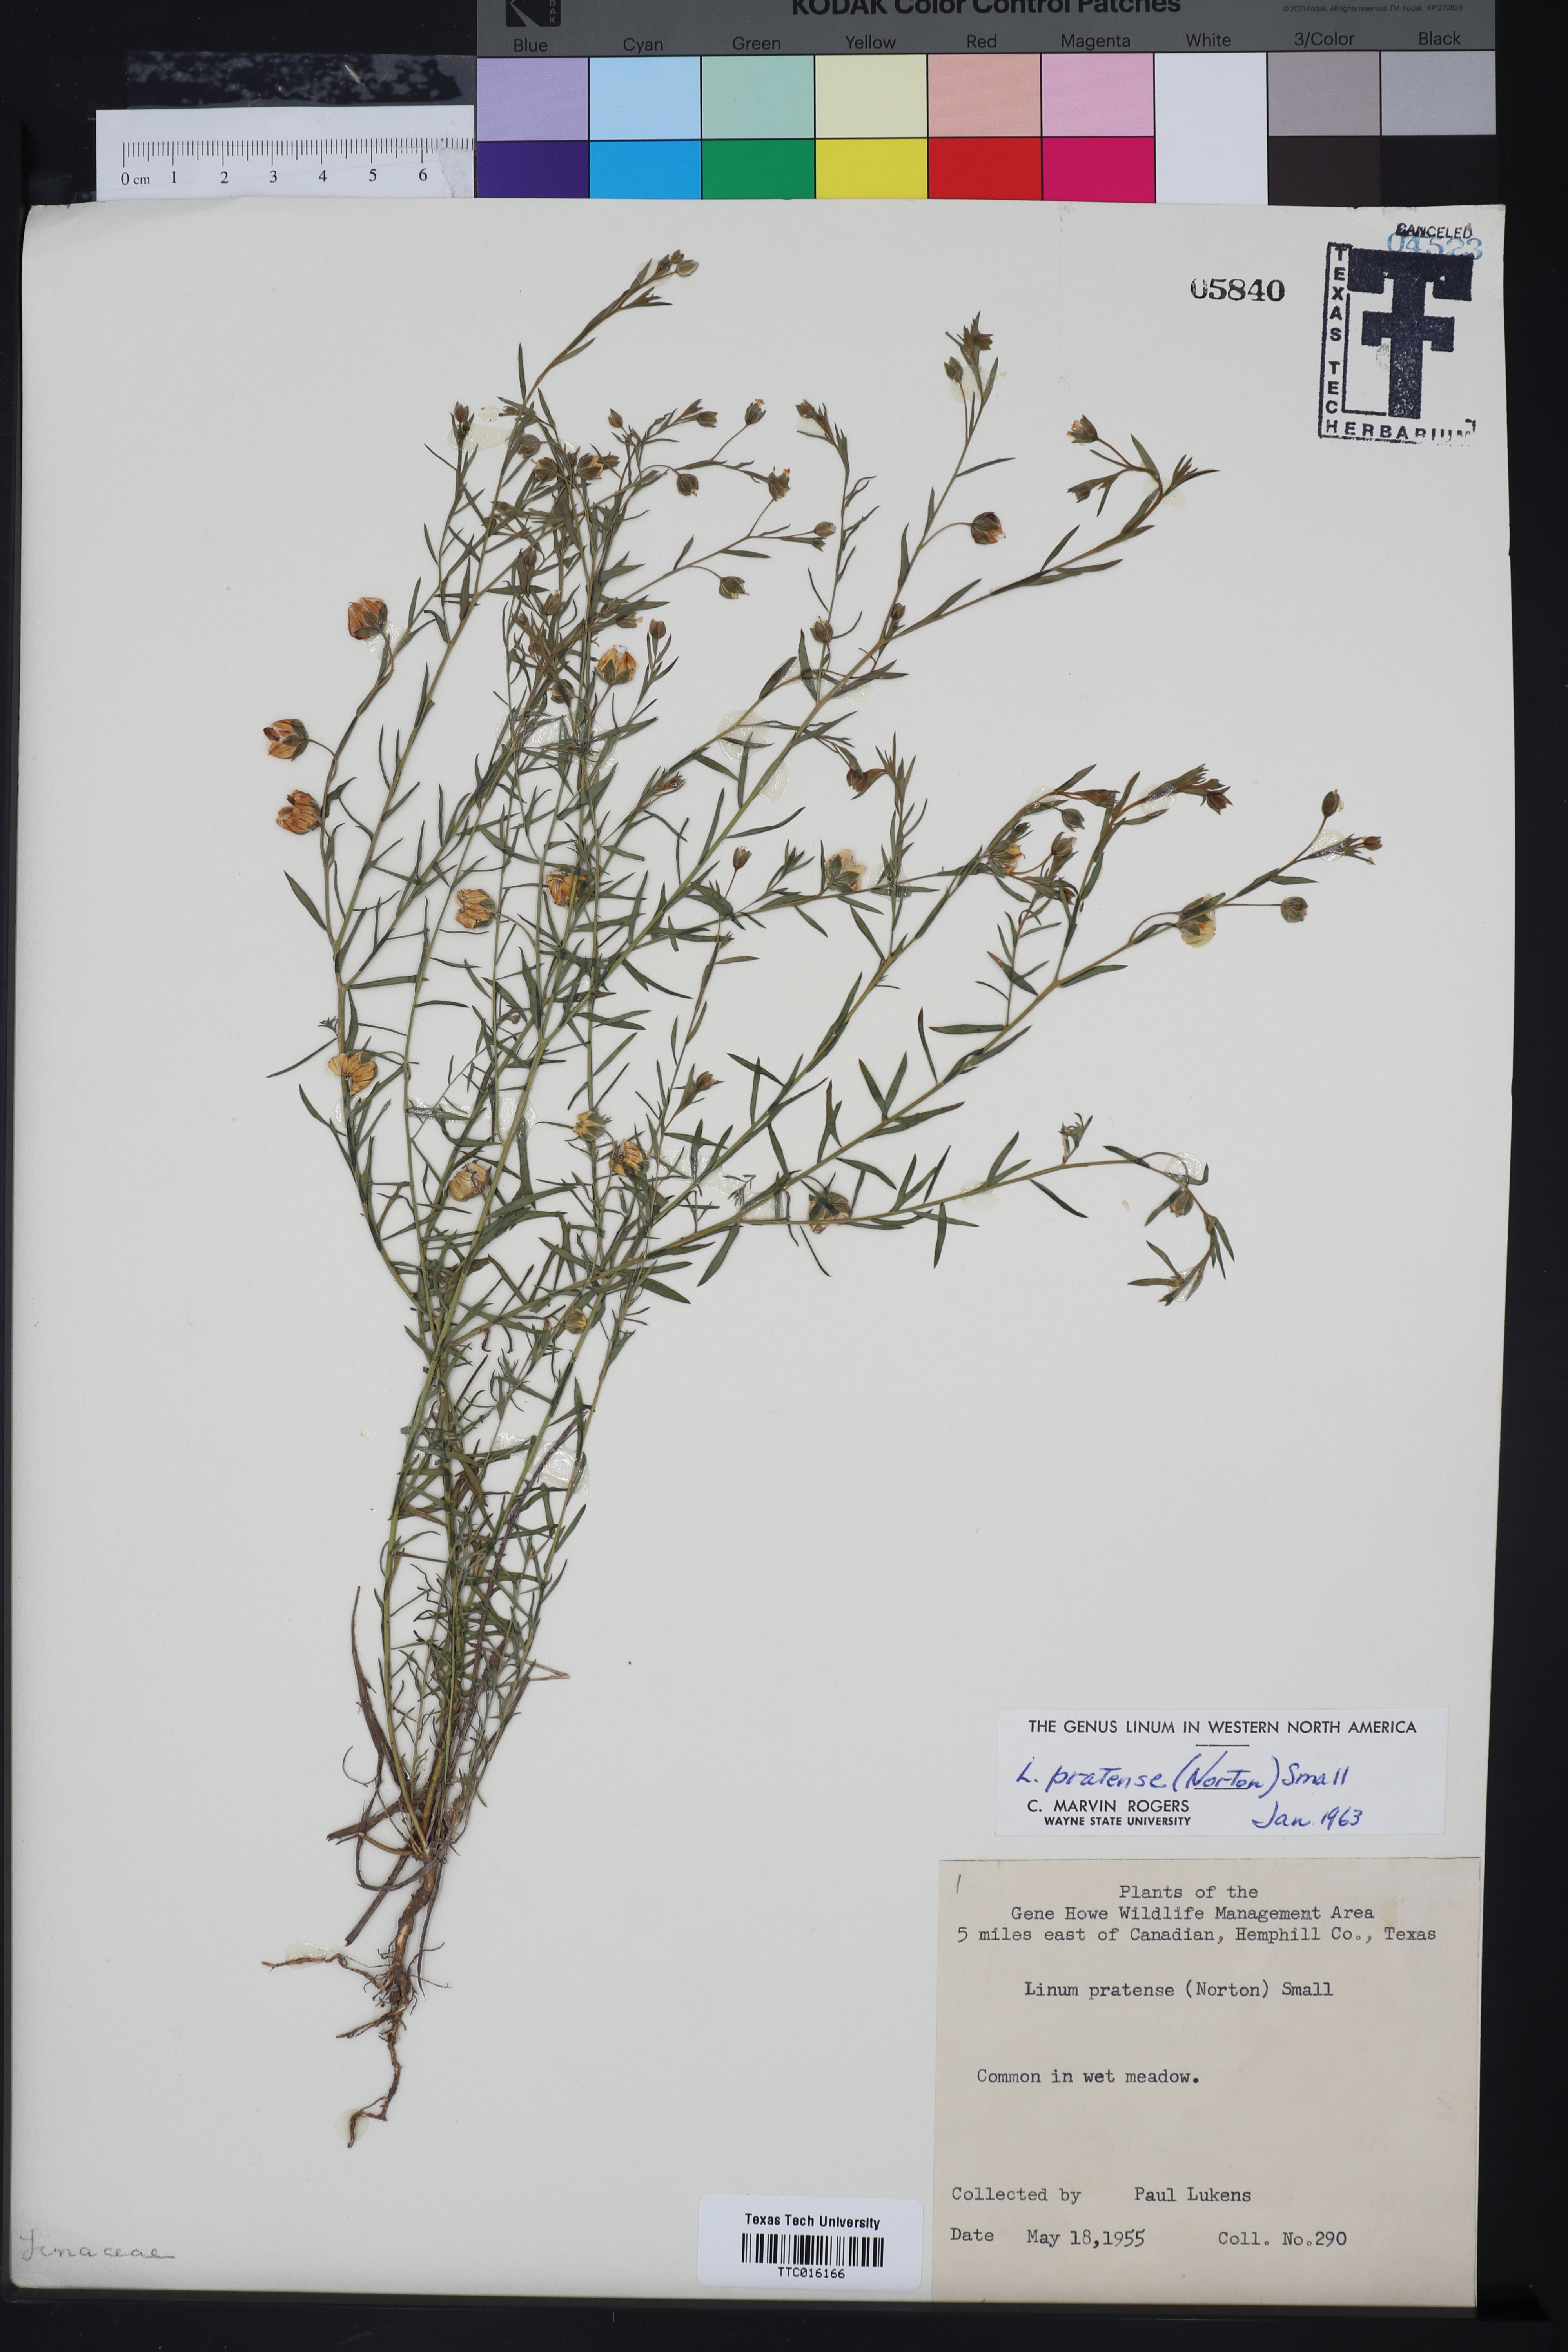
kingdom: Plantae
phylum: Tracheophyta
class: Magnoliopsida
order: Malpighiales
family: Linaceae
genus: Linum
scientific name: Linum pratense
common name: Norton's flax
